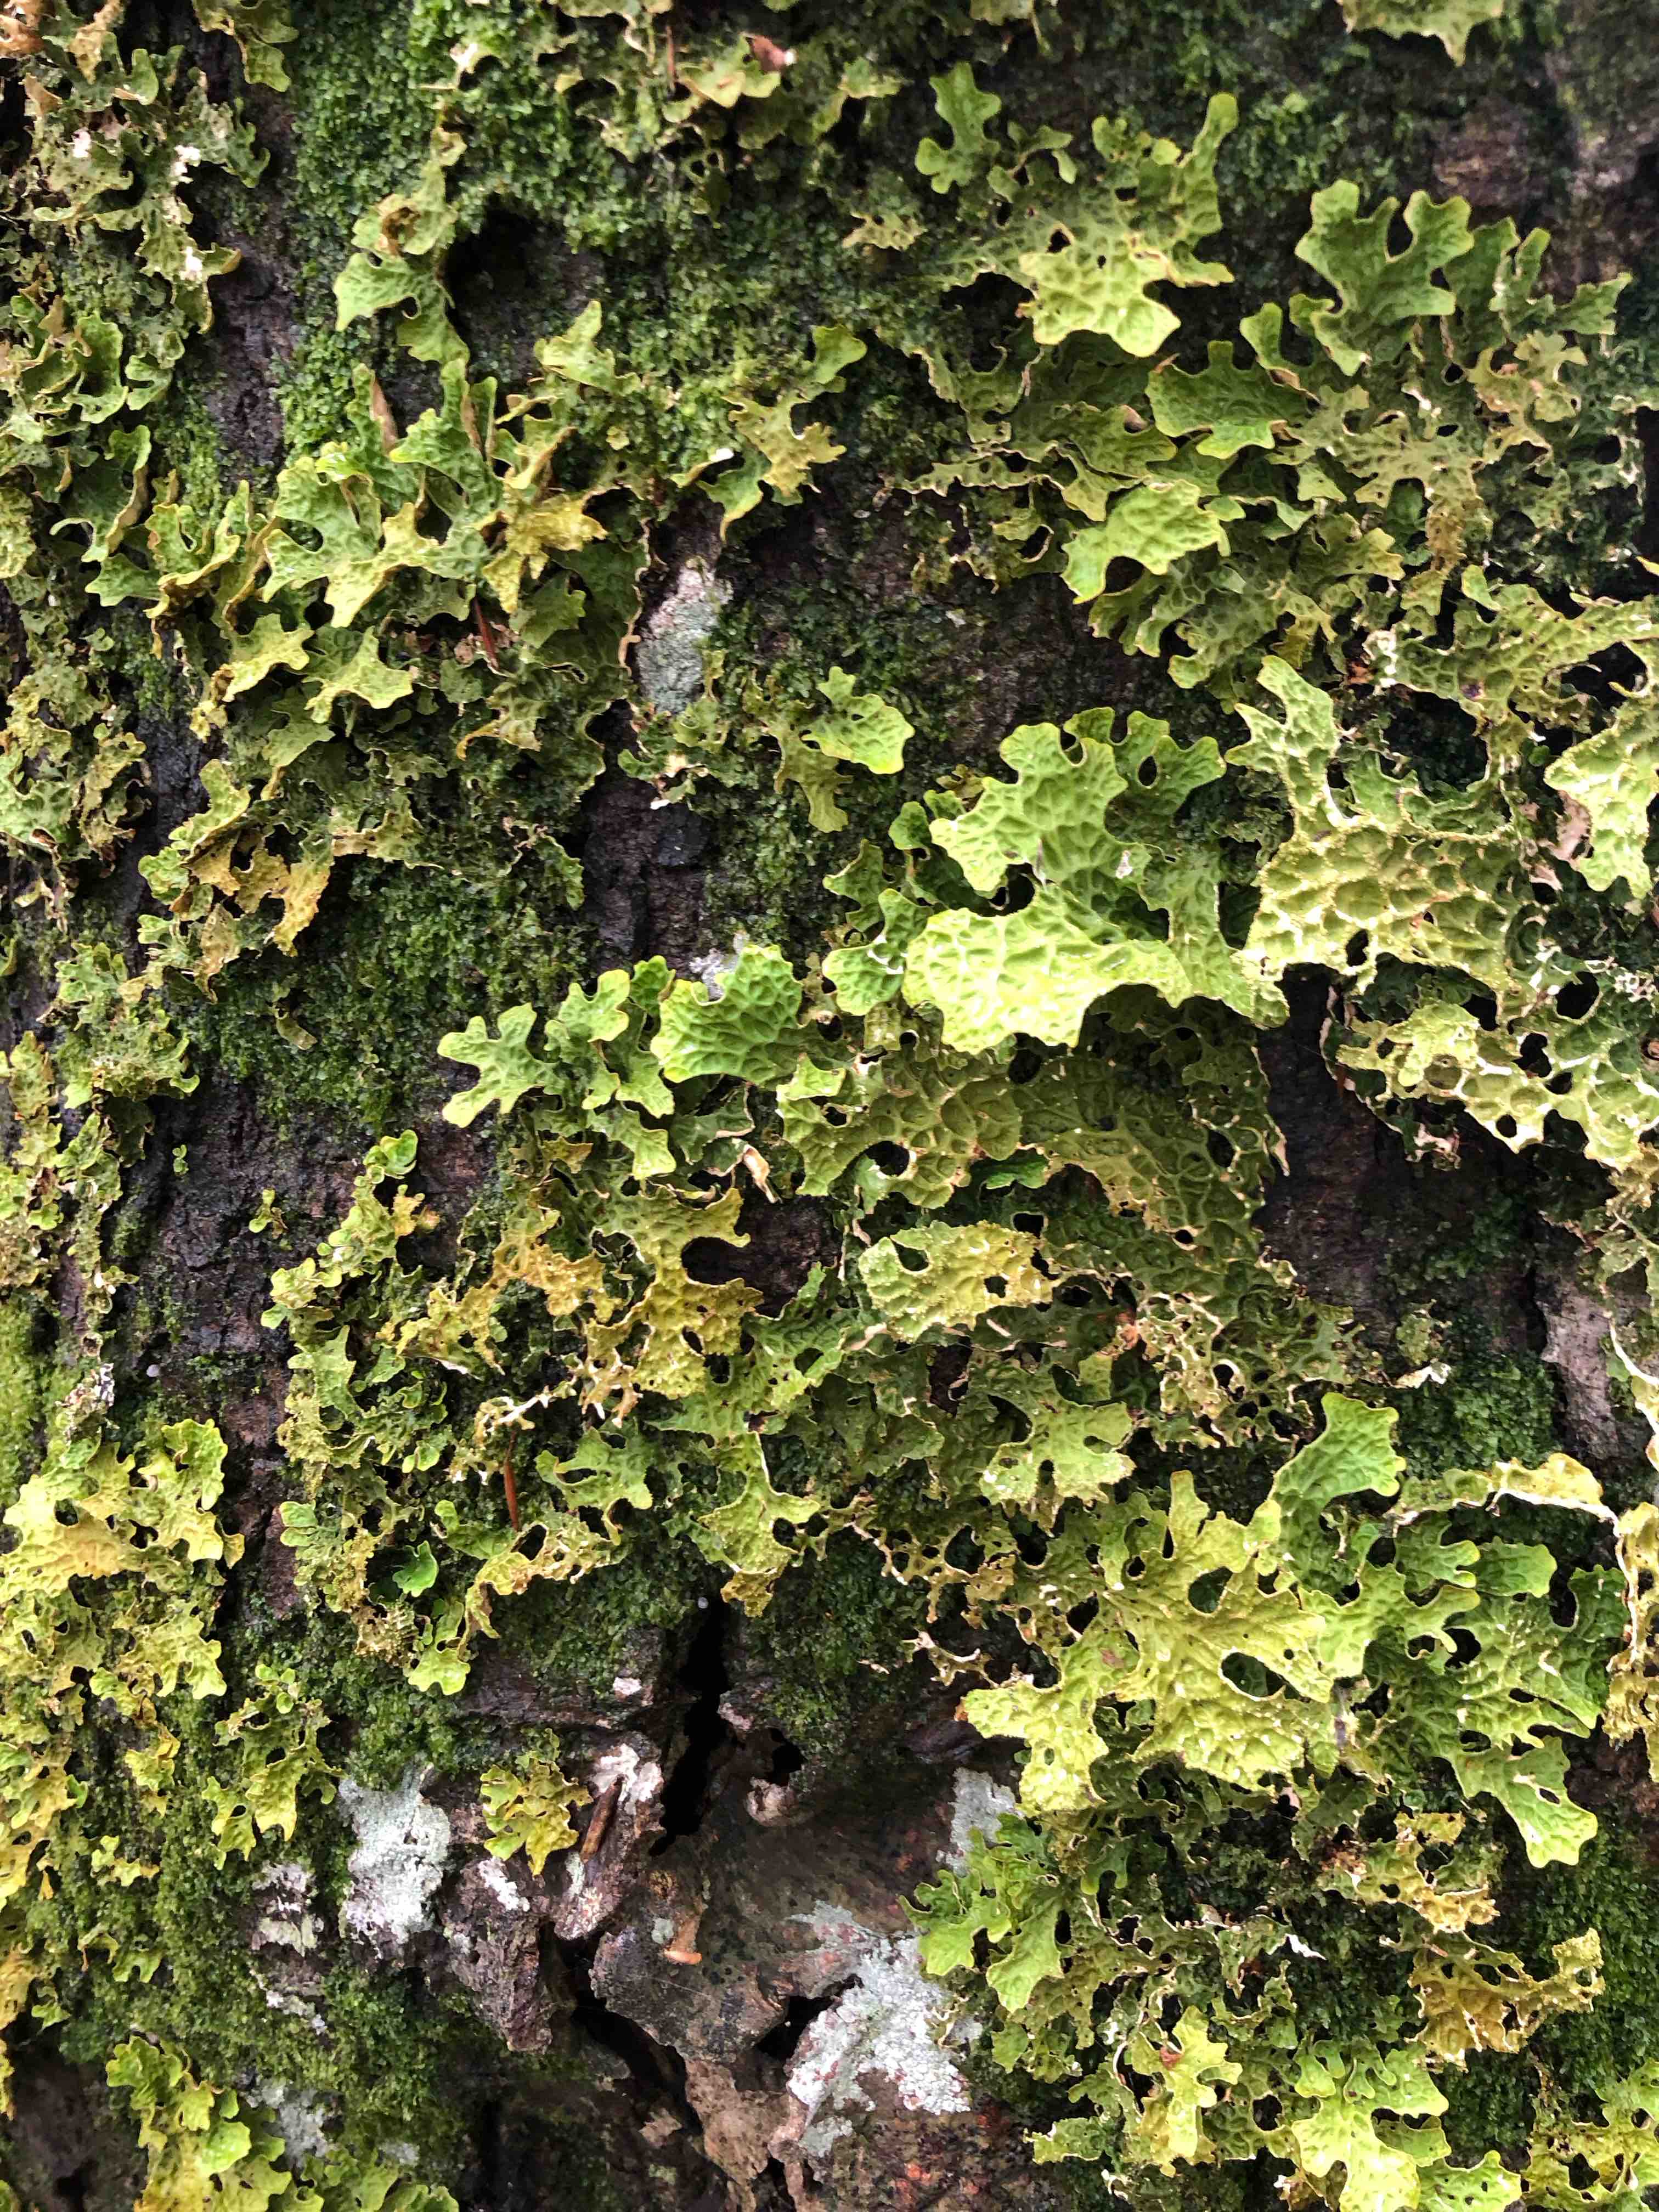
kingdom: Fungi
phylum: Ascomycota
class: Lecanoromycetes
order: Peltigerales
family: Lobariaceae
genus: Lobaria
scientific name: Lobaria pulmonaria
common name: almindelig lungelav
